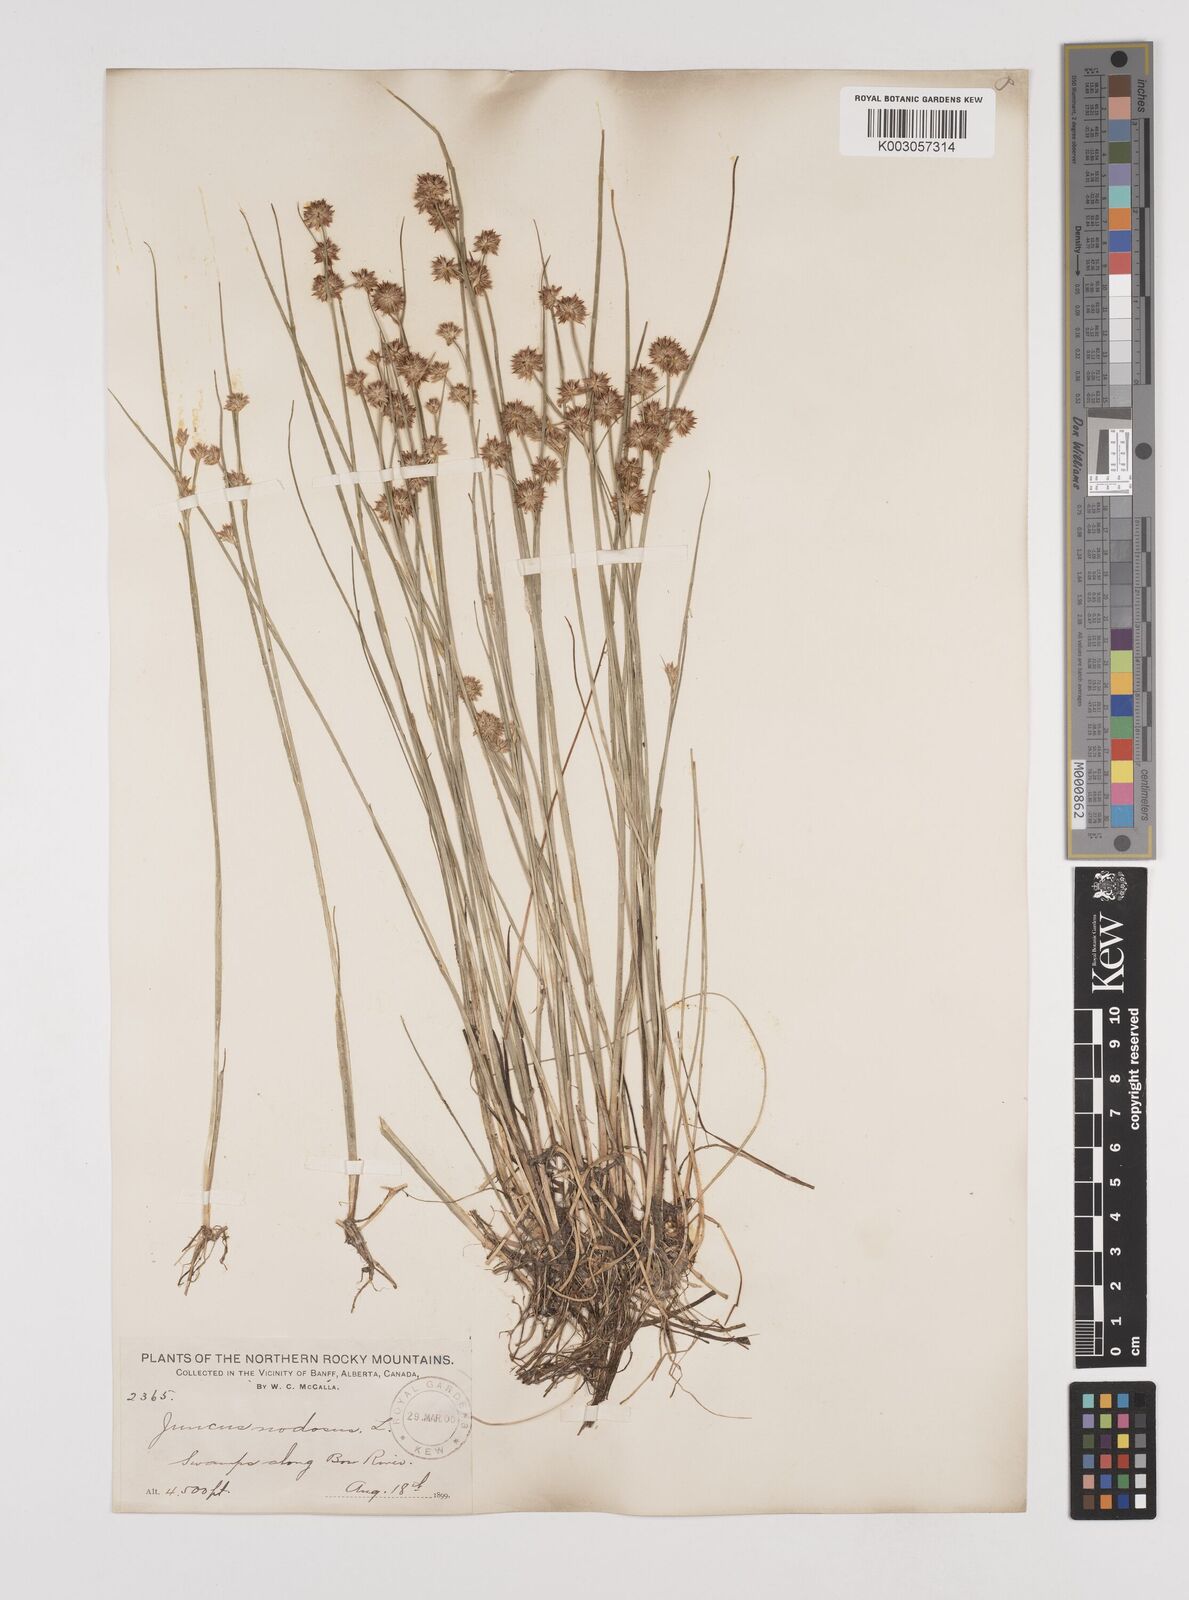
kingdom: Plantae
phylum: Tracheophyta
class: Liliopsida
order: Poales
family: Juncaceae
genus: Juncus
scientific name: Juncus nodosus
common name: Knotted rush
